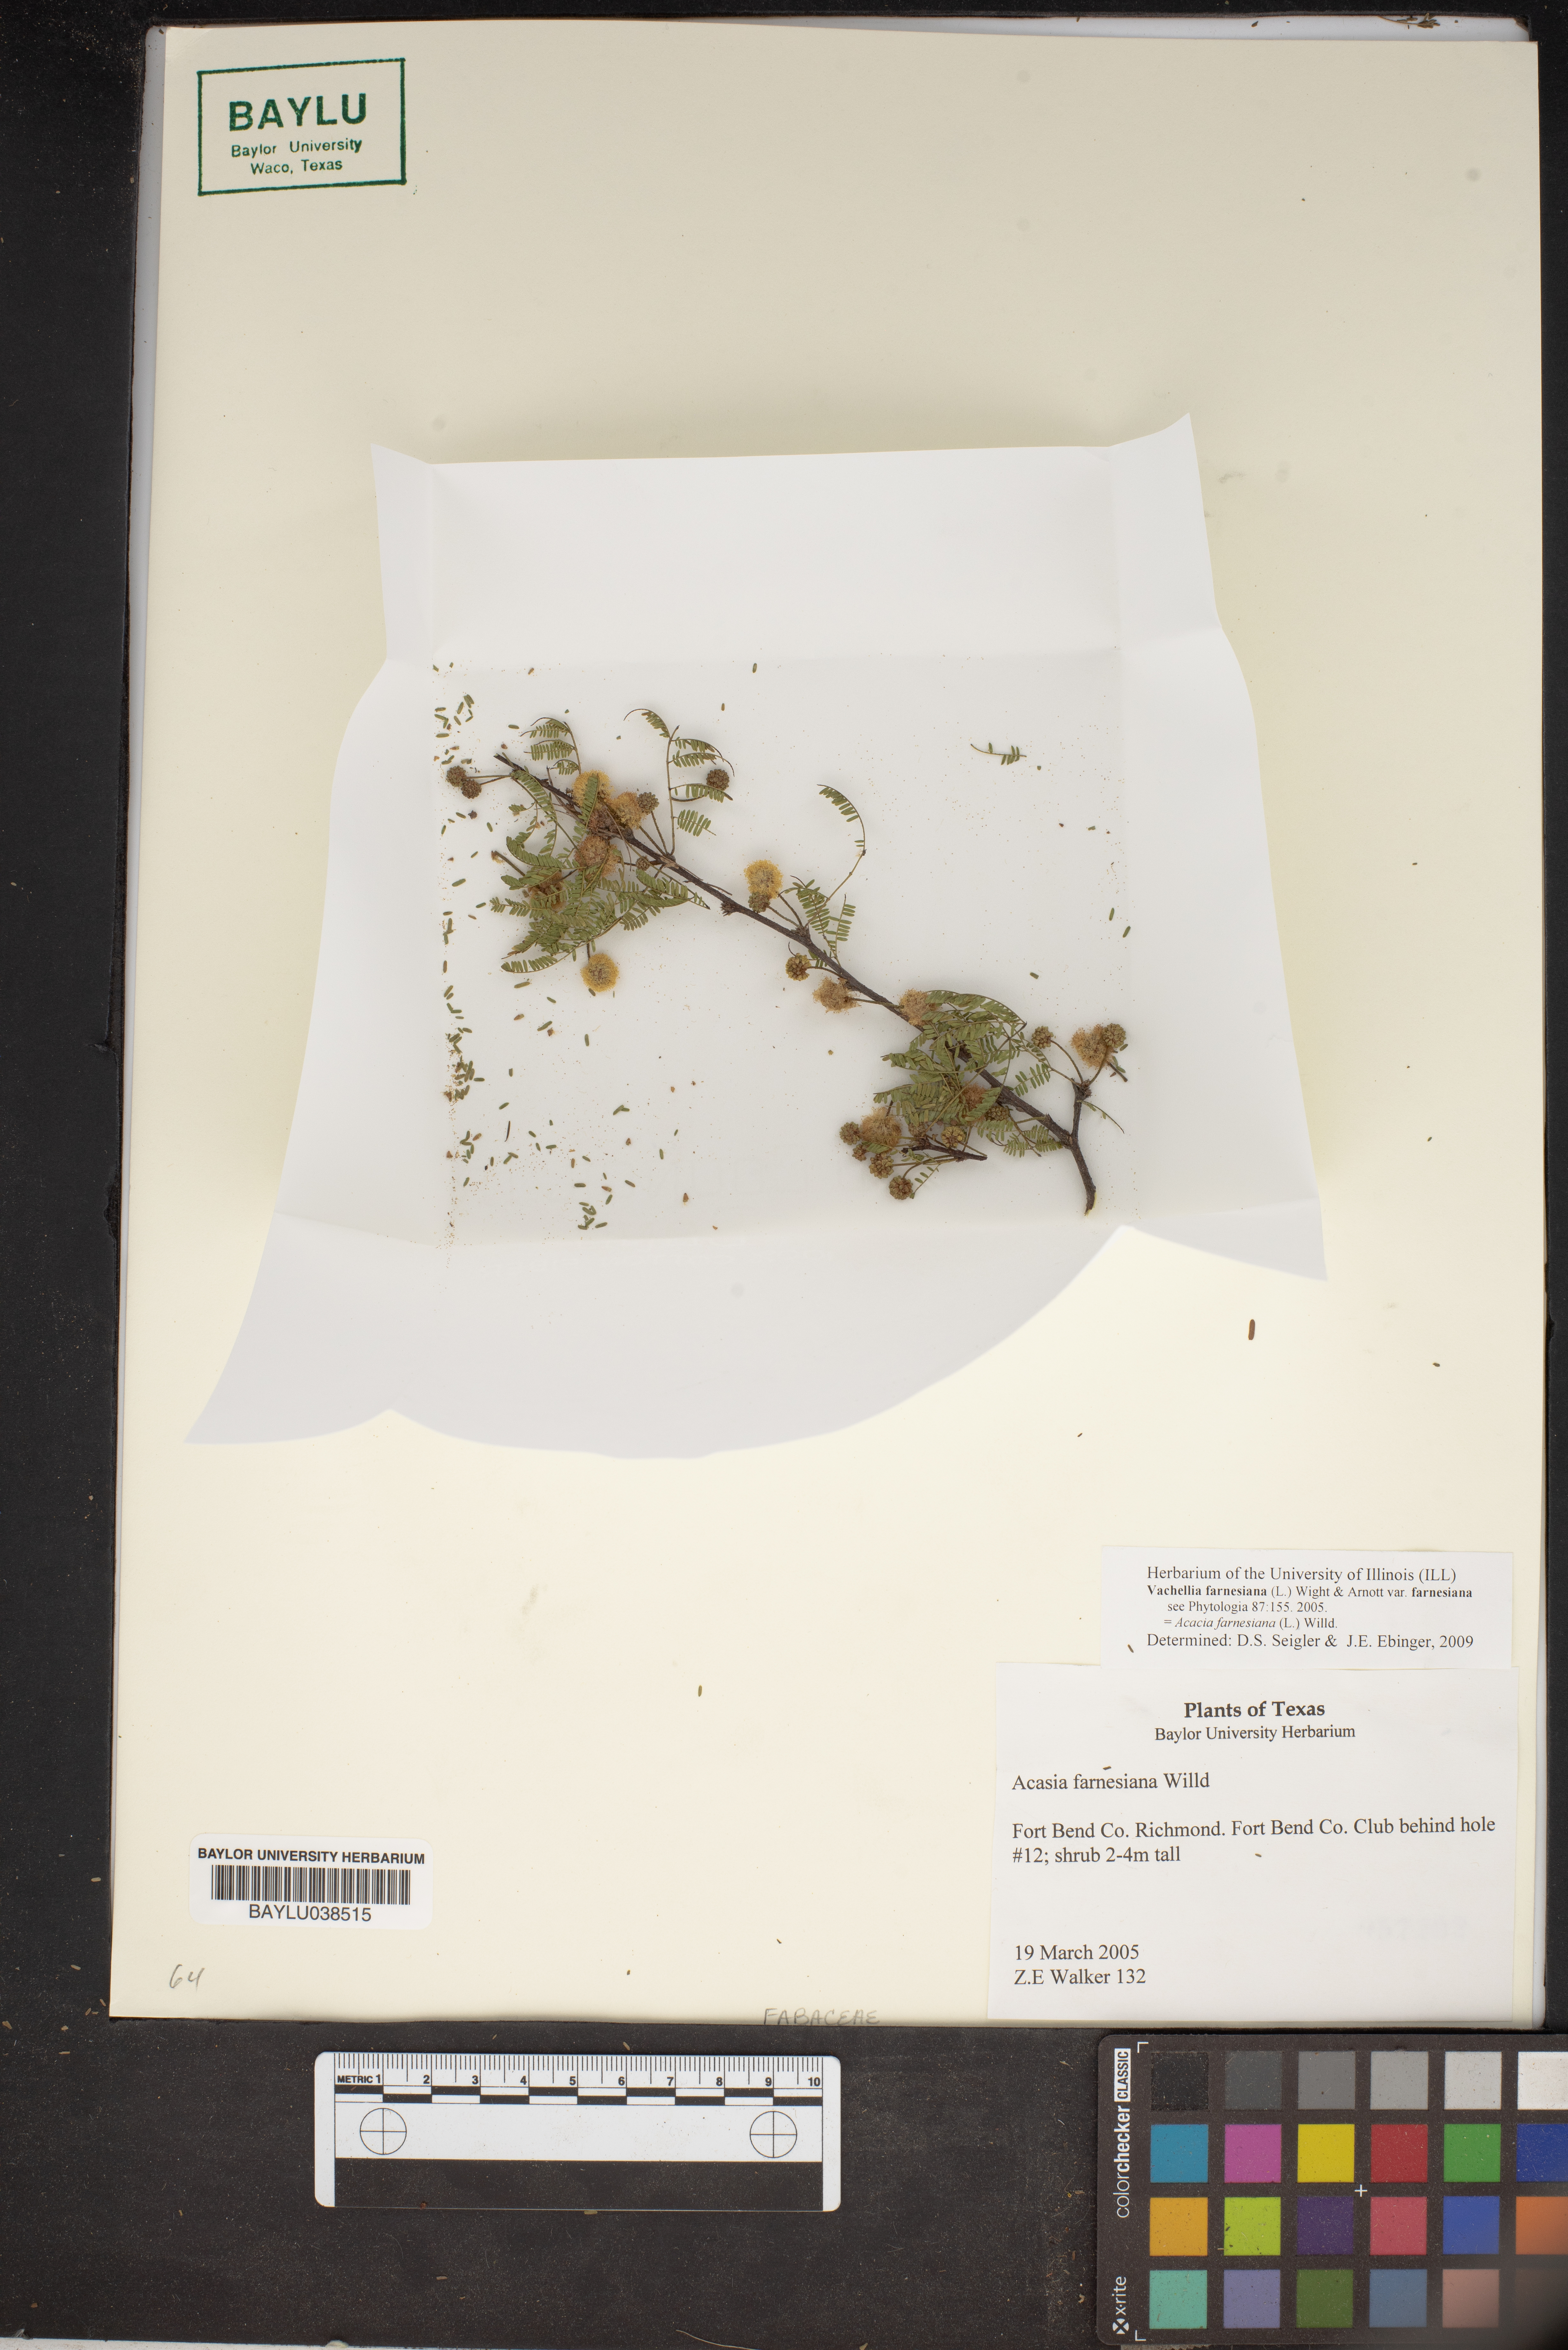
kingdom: Plantae
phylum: Tracheophyta
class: Magnoliopsida
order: Fabales
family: Fabaceae
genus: Vachellia
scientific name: Vachellia farnesiana
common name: Sweet acacia
